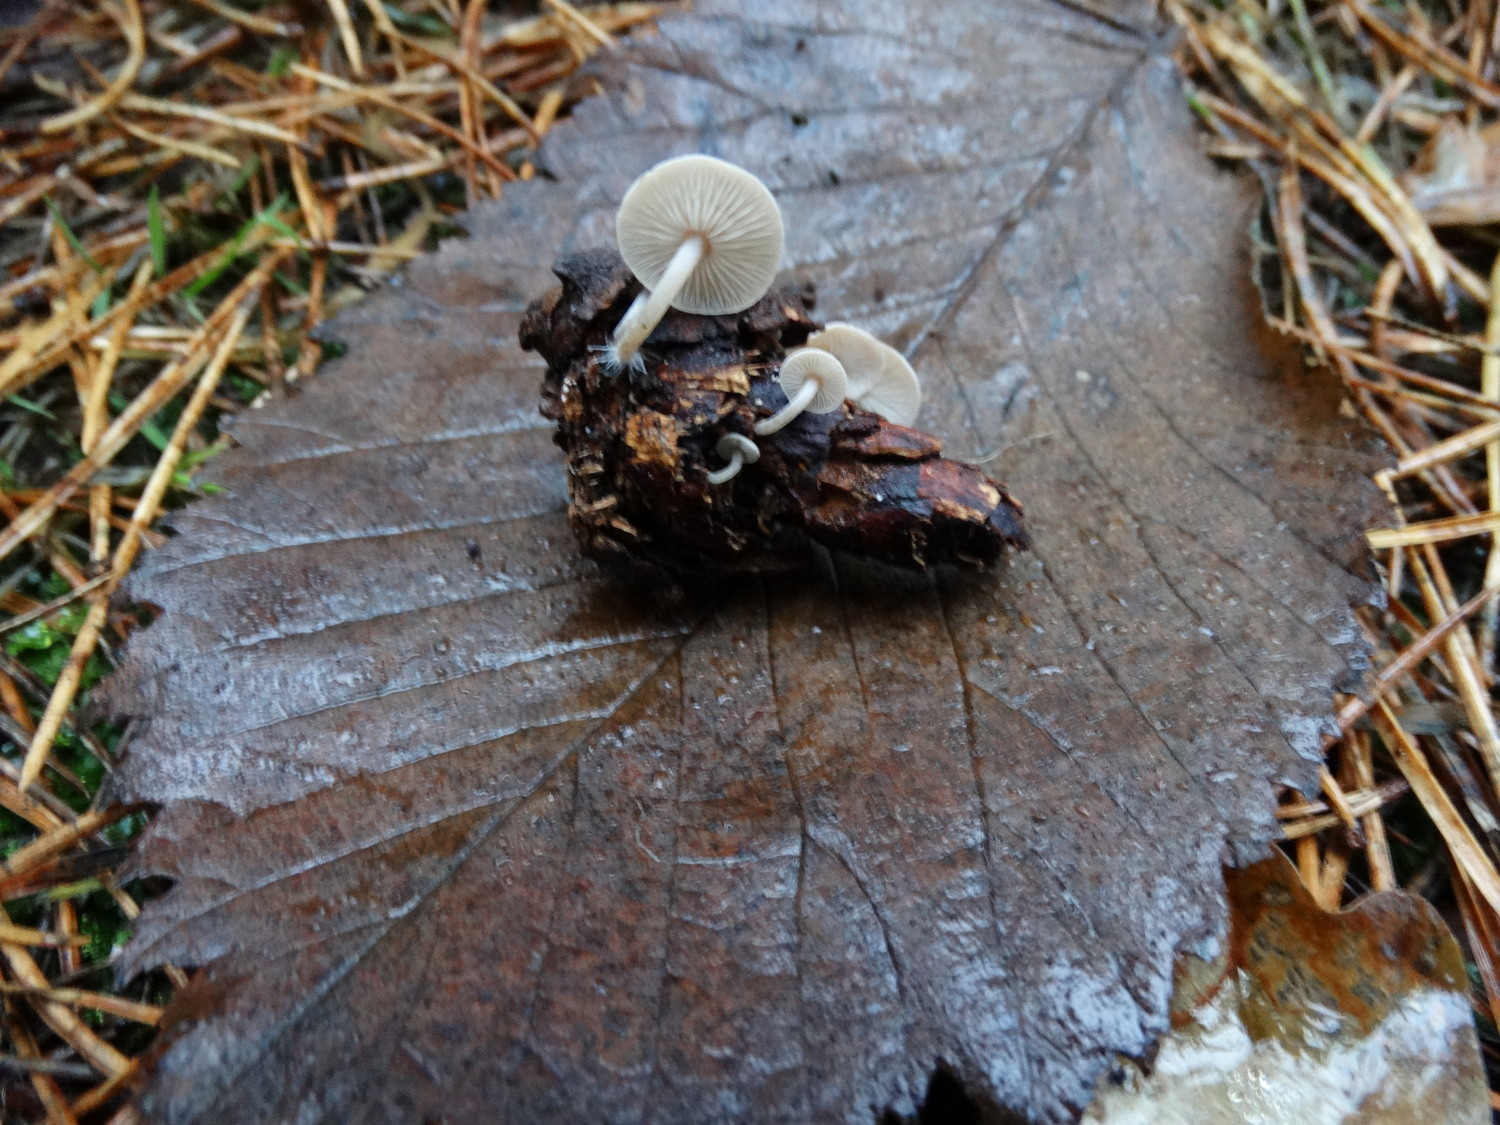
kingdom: Fungi
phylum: Basidiomycota
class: Agaricomycetes
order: Agaricales
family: Marasmiaceae
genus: Baeospora
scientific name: Baeospora myosura
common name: koglebruskhat
